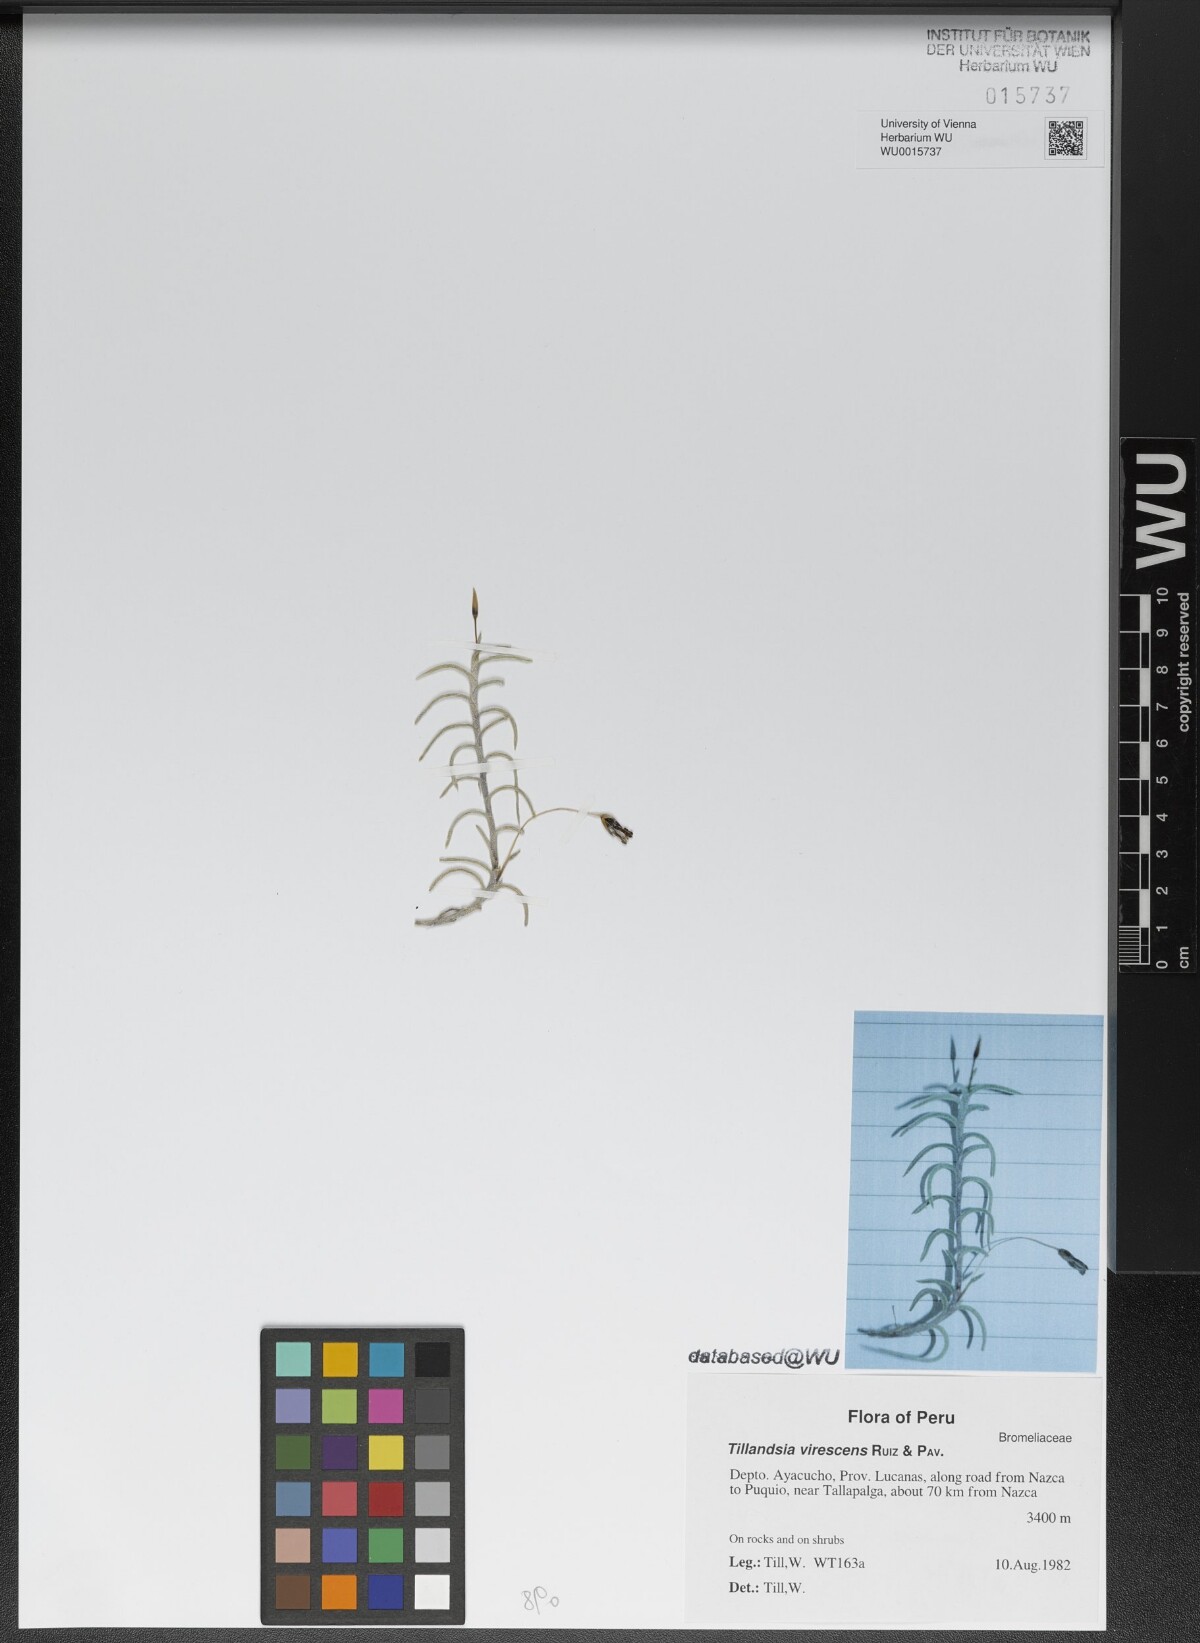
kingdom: Plantae
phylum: Tracheophyta
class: Liliopsida
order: Poales
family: Bromeliaceae
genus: Tillandsia
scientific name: Tillandsia virescens
